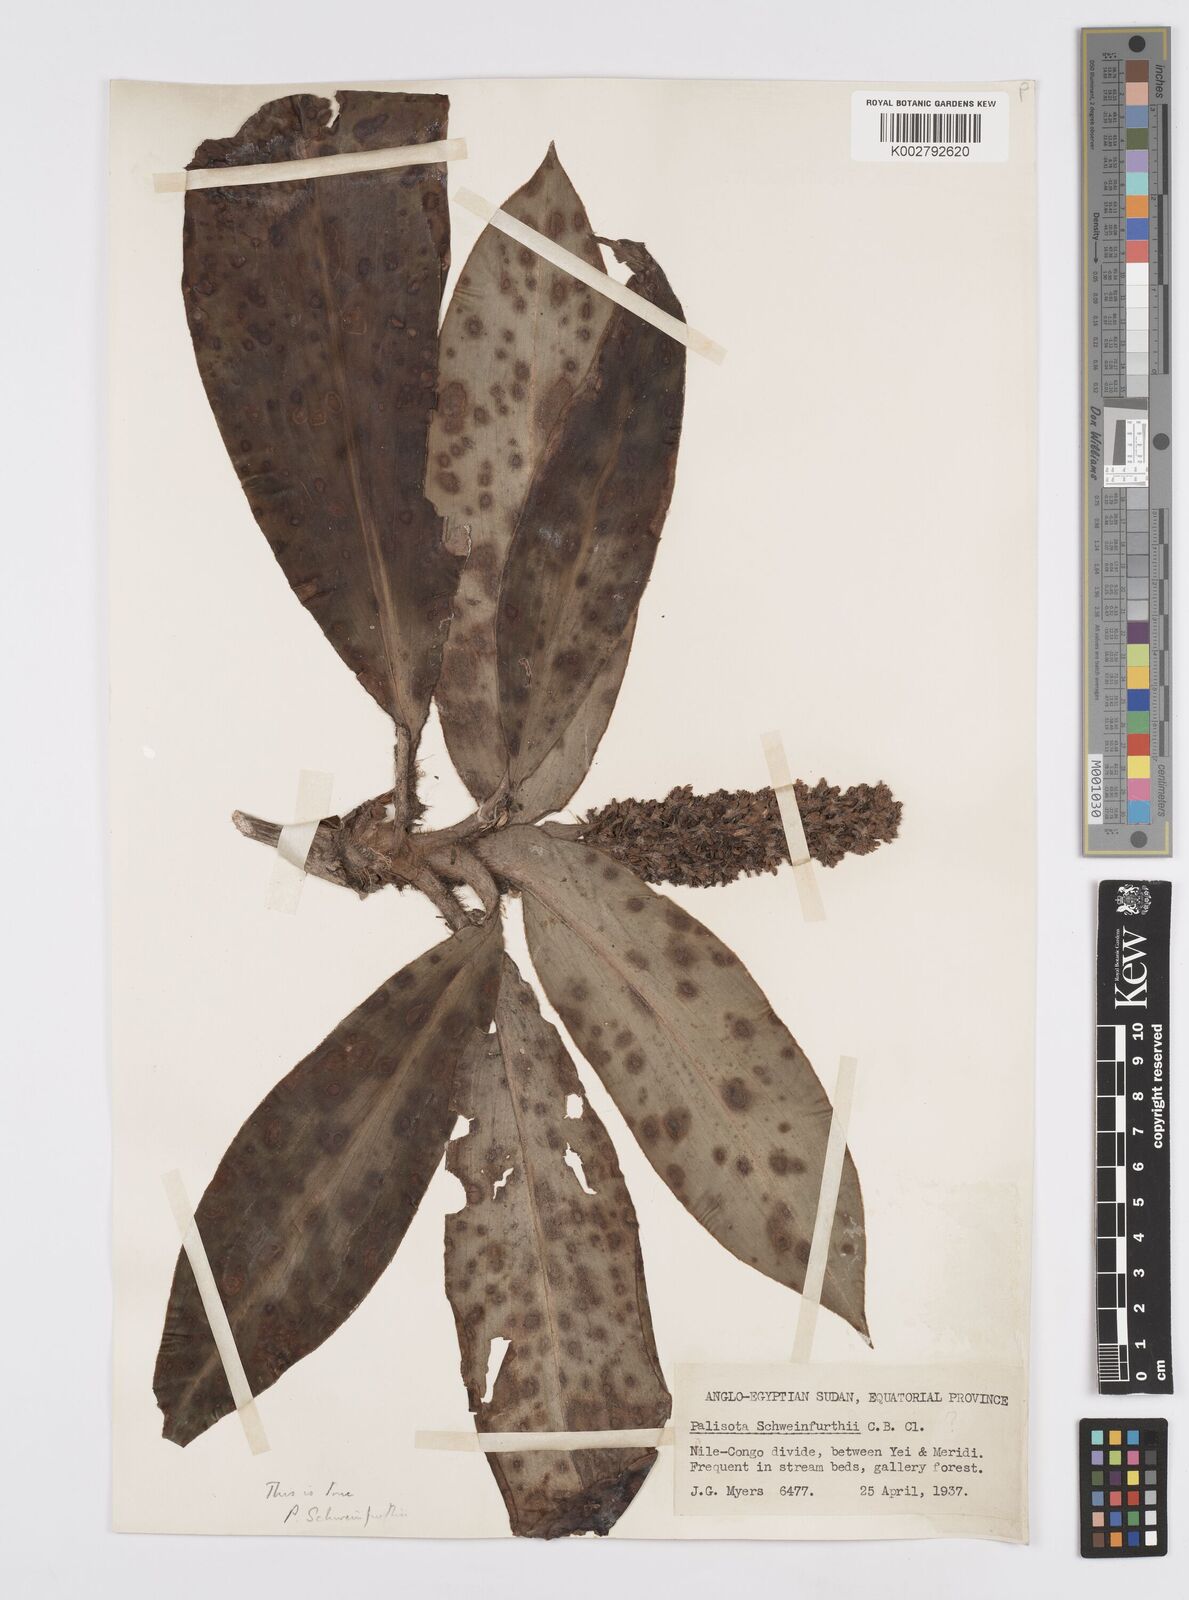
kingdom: Plantae
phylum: Tracheophyta
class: Liliopsida
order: Commelinales
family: Commelinaceae
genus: Palisota
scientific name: Palisota schweinfurthii
